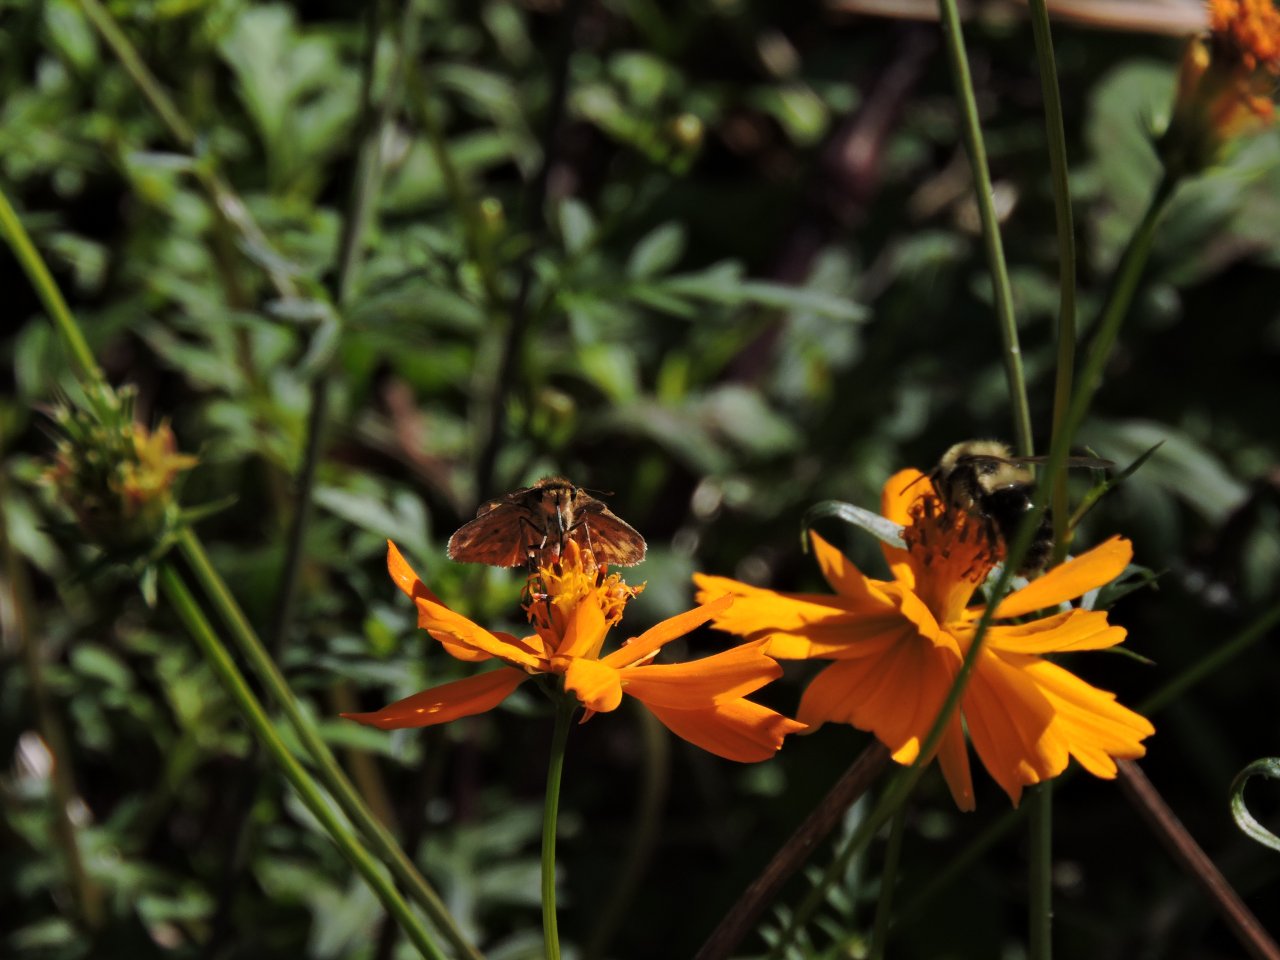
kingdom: Animalia
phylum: Arthropoda
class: Insecta
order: Lepidoptera
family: Hesperiidae
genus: Hylephila
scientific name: Hylephila phyleus
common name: Fiery Skipper
